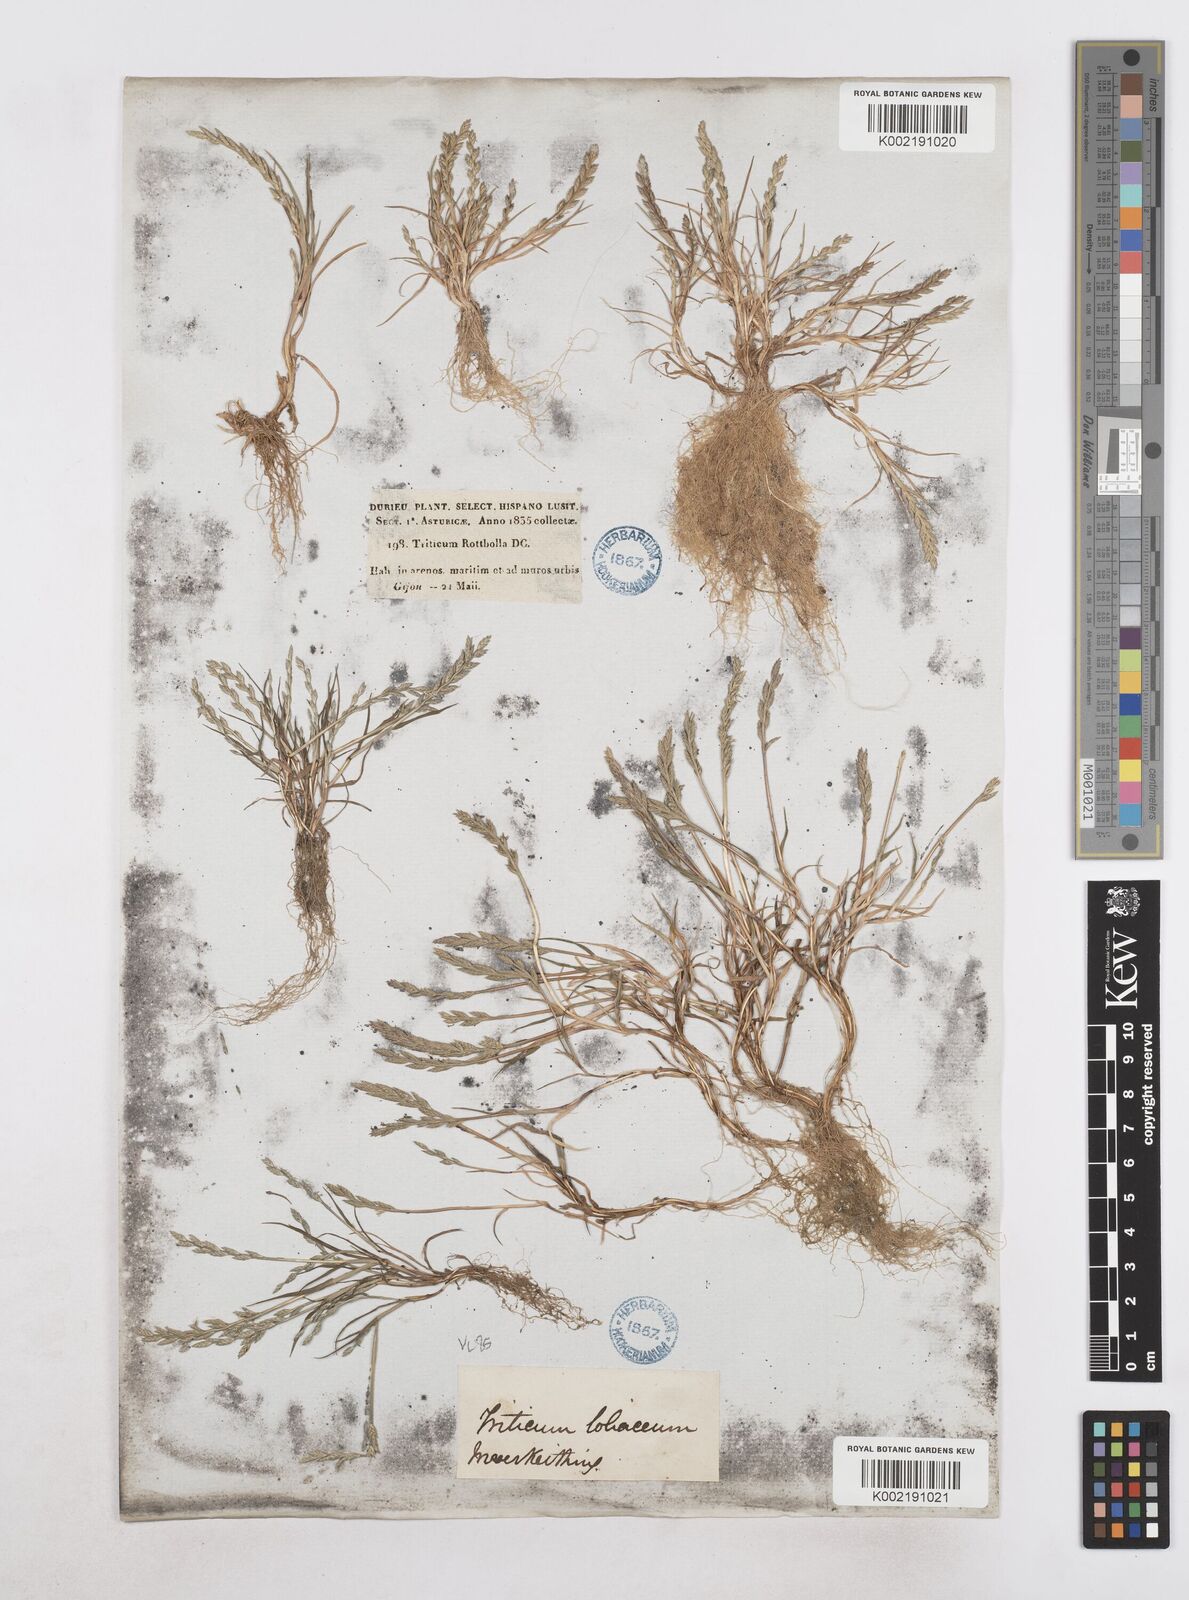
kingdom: Plantae
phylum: Tracheophyta
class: Liliopsida
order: Poales
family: Poaceae
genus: Catapodium
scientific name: Catapodium marinum
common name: Sea fern-grass
